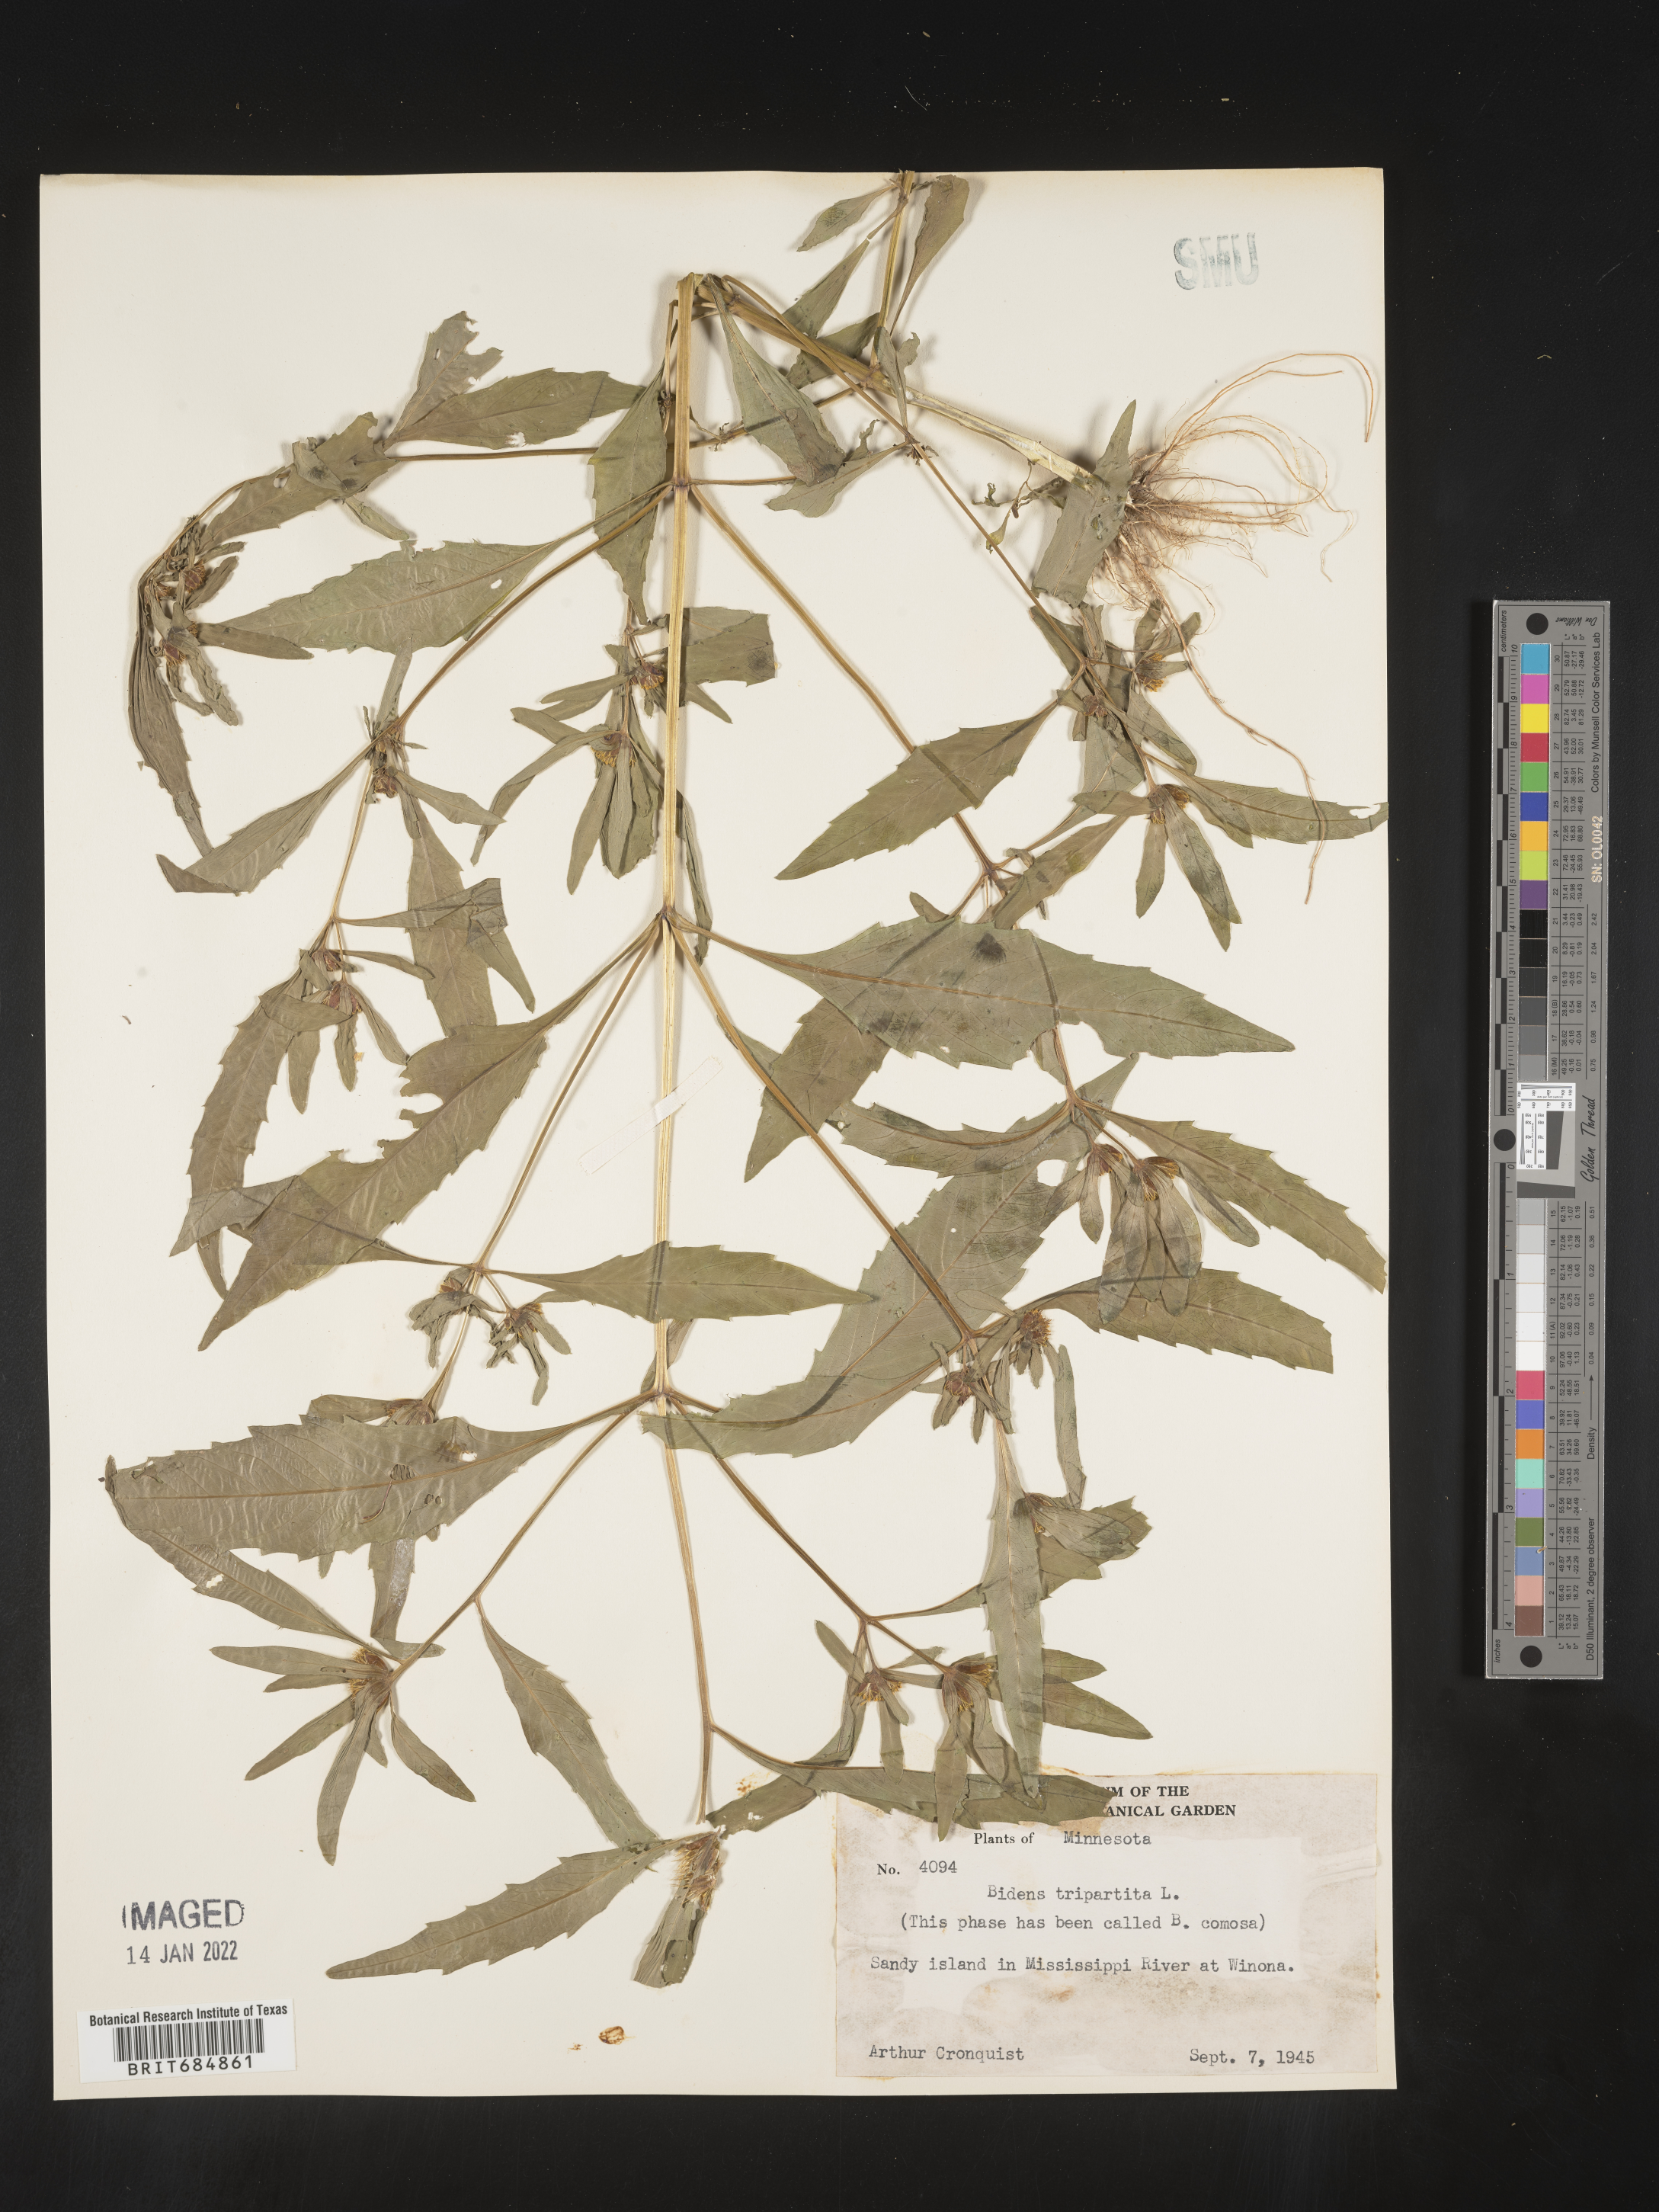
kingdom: Plantae
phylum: Tracheophyta
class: Magnoliopsida
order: Asterales
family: Asteraceae
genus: Bidens
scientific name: Bidens tripartita
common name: Trifid bur-marigold
